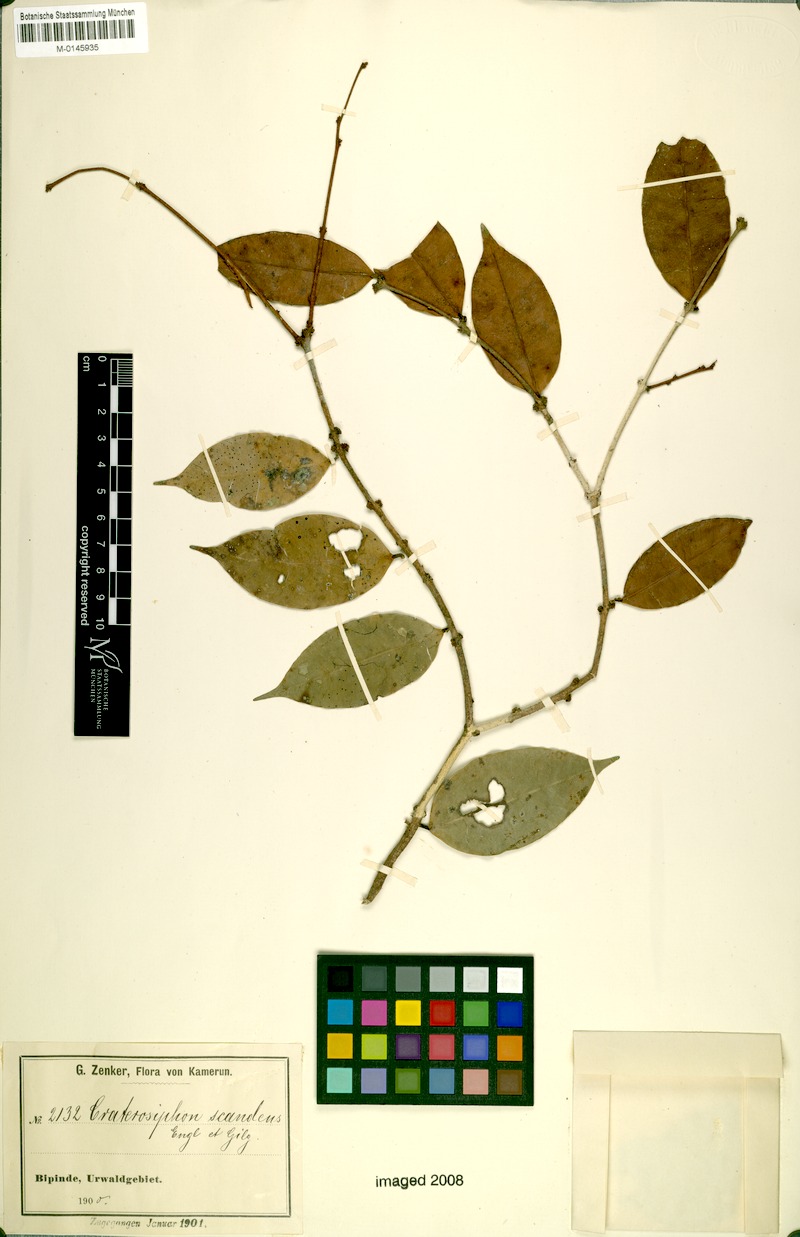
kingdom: Plantae
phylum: Tracheophyta
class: Magnoliopsida
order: Malvales
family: Thymelaeaceae
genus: Craterosiphon
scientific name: Craterosiphon pseudoscandens
